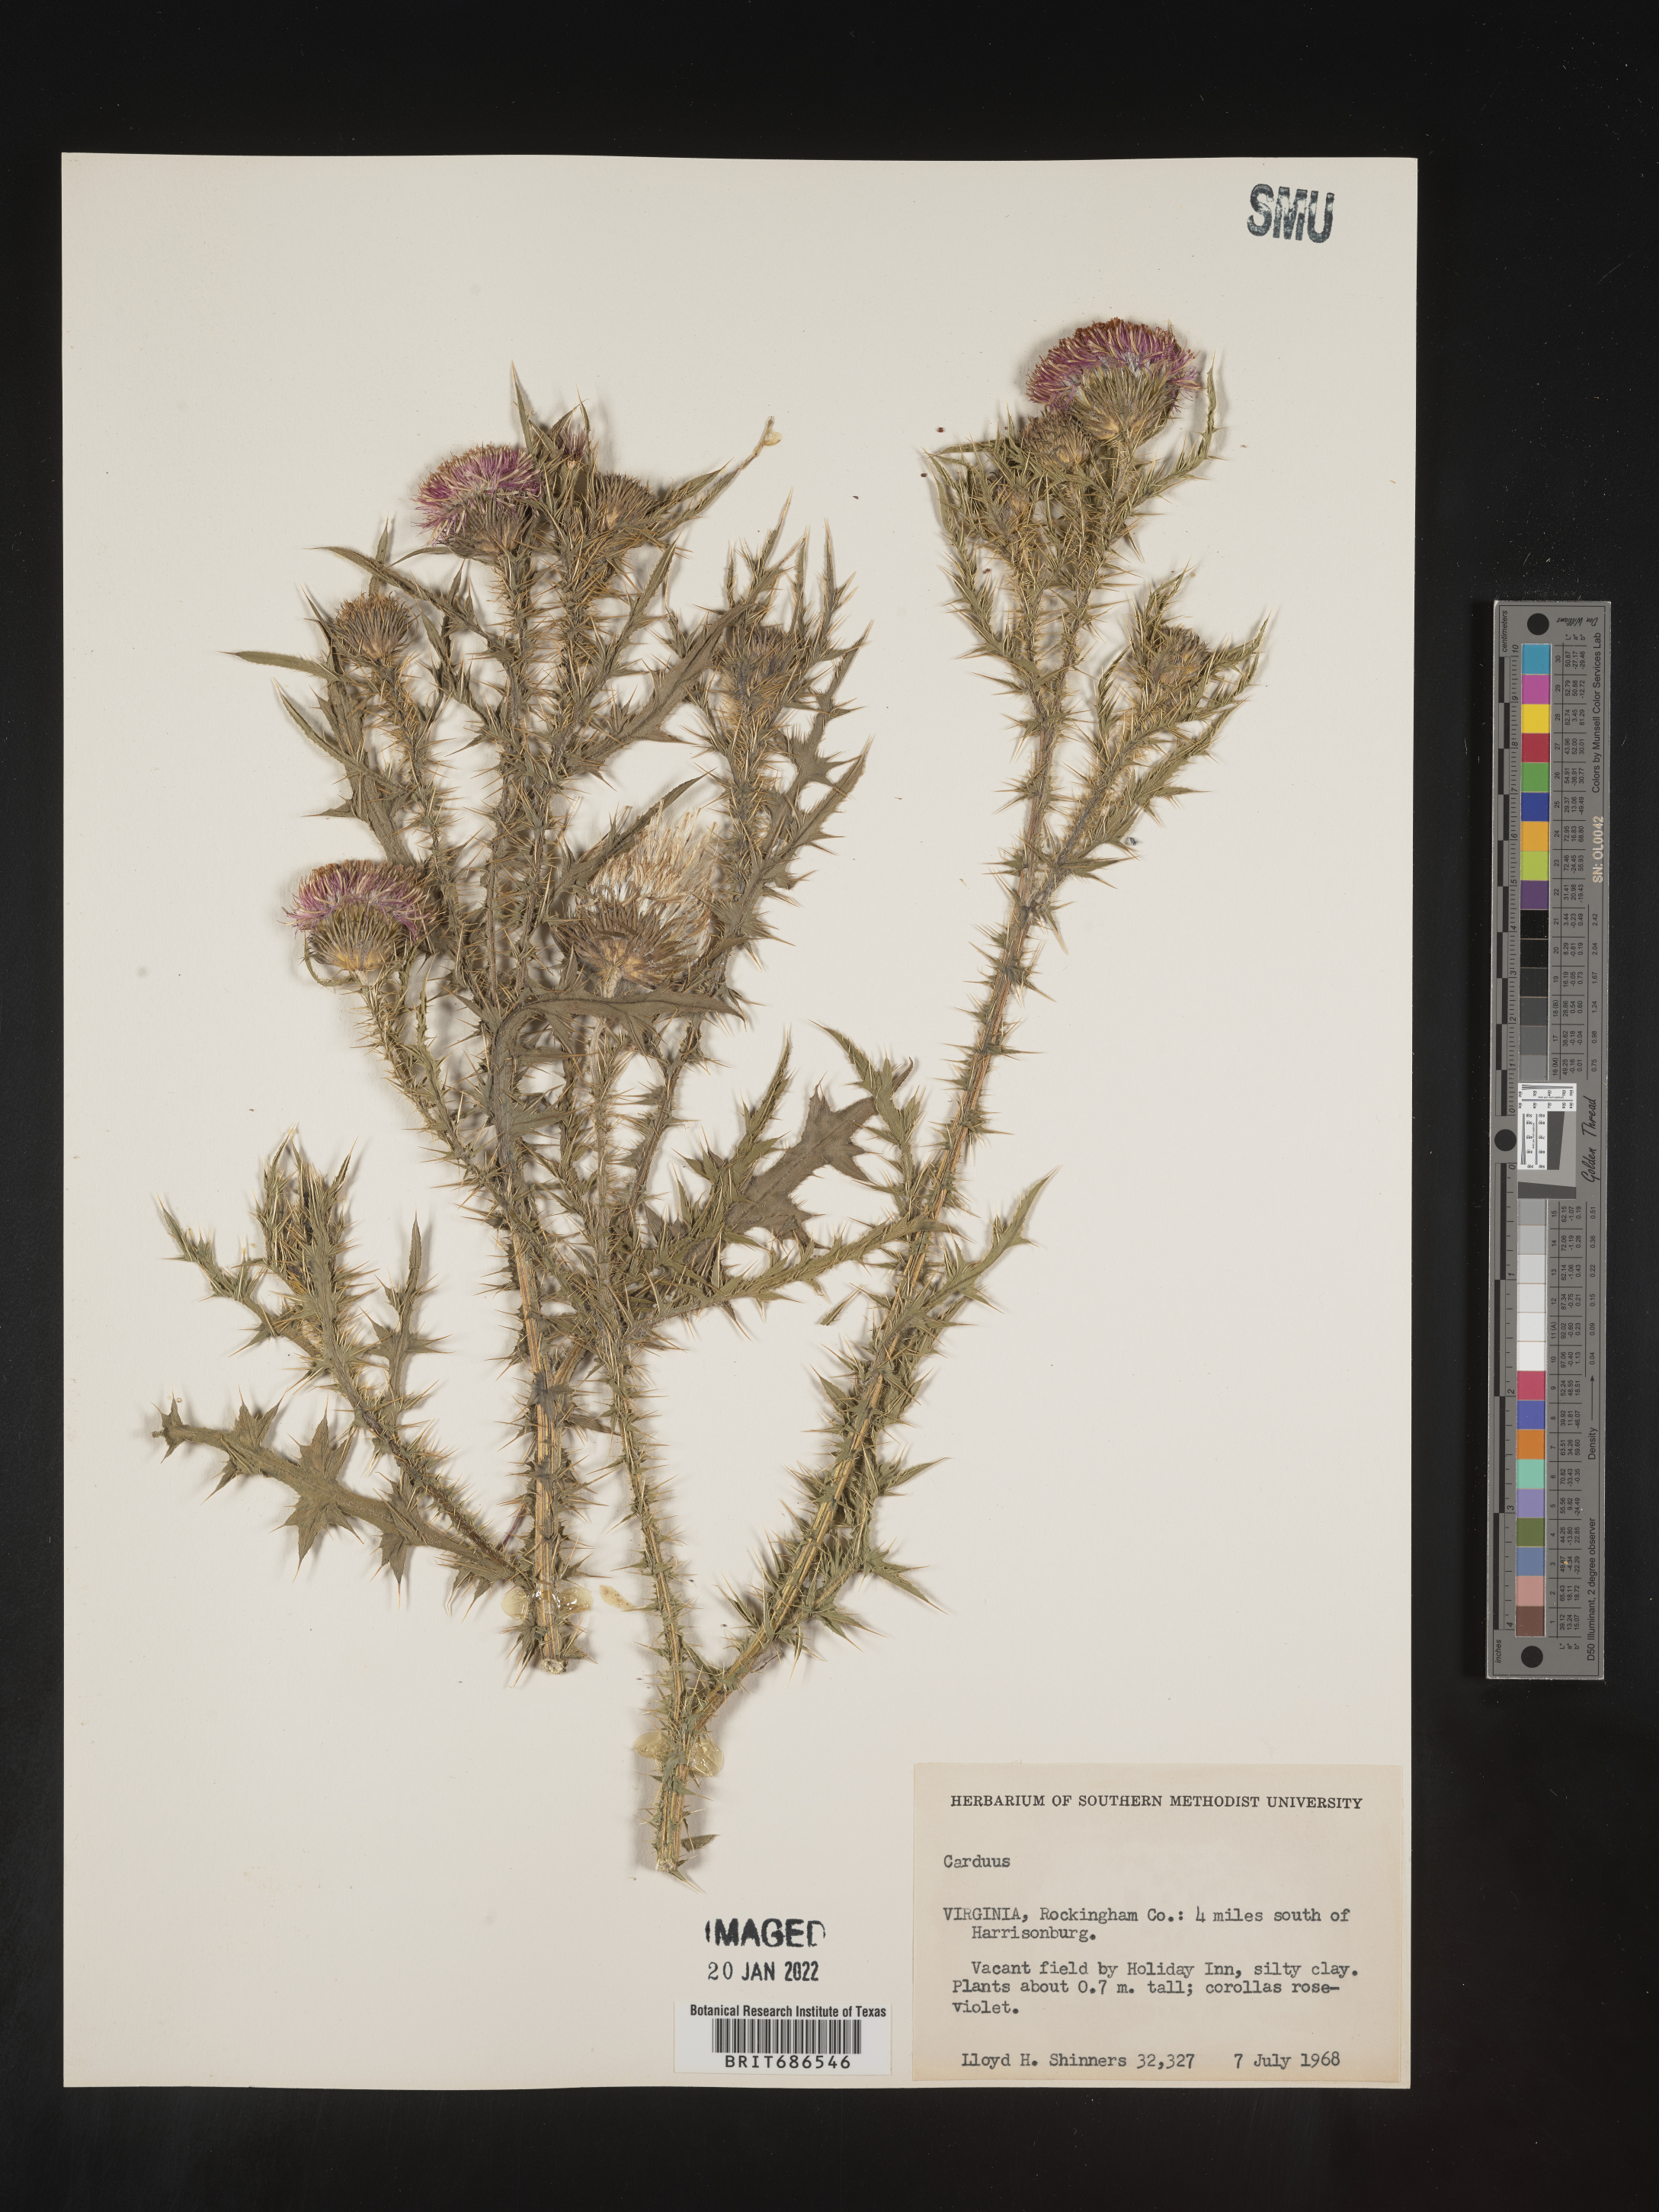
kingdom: Plantae
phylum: Tracheophyta
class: Magnoliopsida
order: Asterales
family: Asteraceae
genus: Carduus
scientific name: Carduus crispus
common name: Welted thistle
